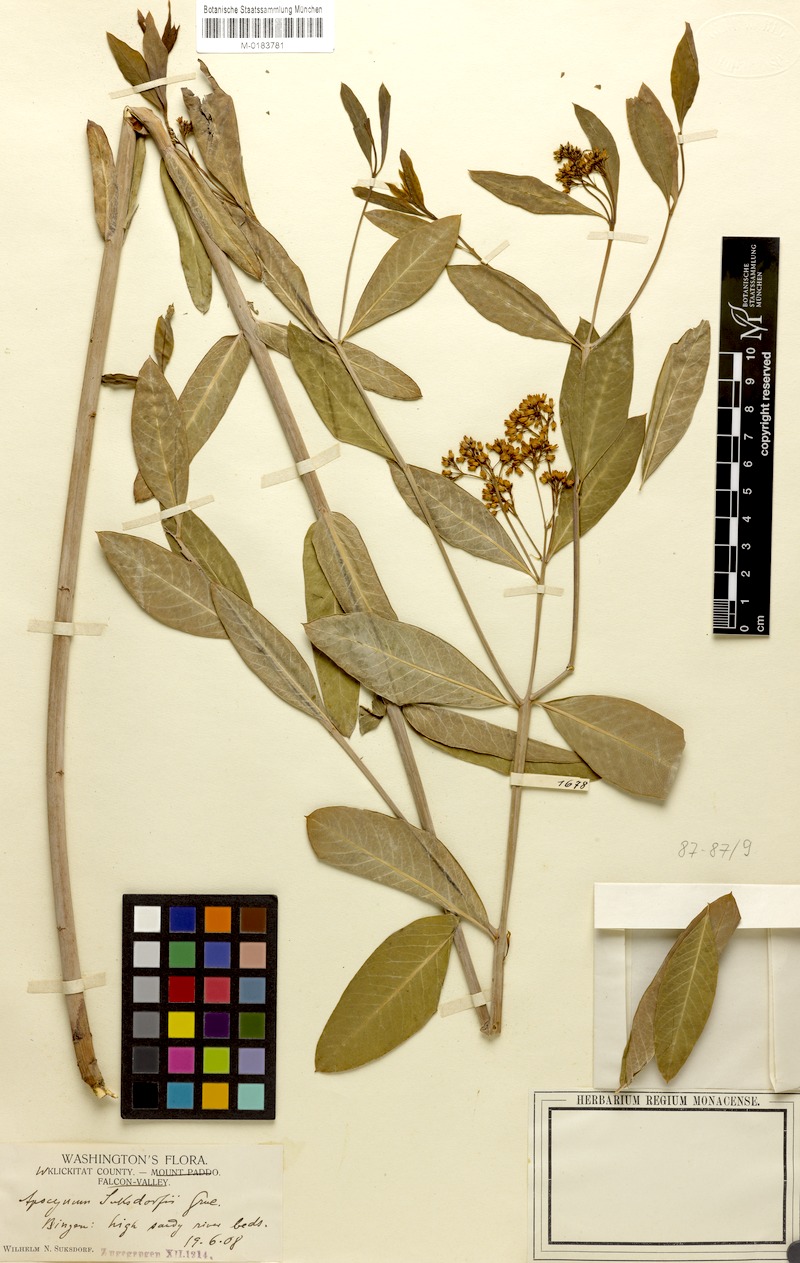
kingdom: Plantae
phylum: Tracheophyta
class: Magnoliopsida
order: Gentianales
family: Apocynaceae
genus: Apocynum
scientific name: Apocynum cannabinum
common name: Hemp dogbane
